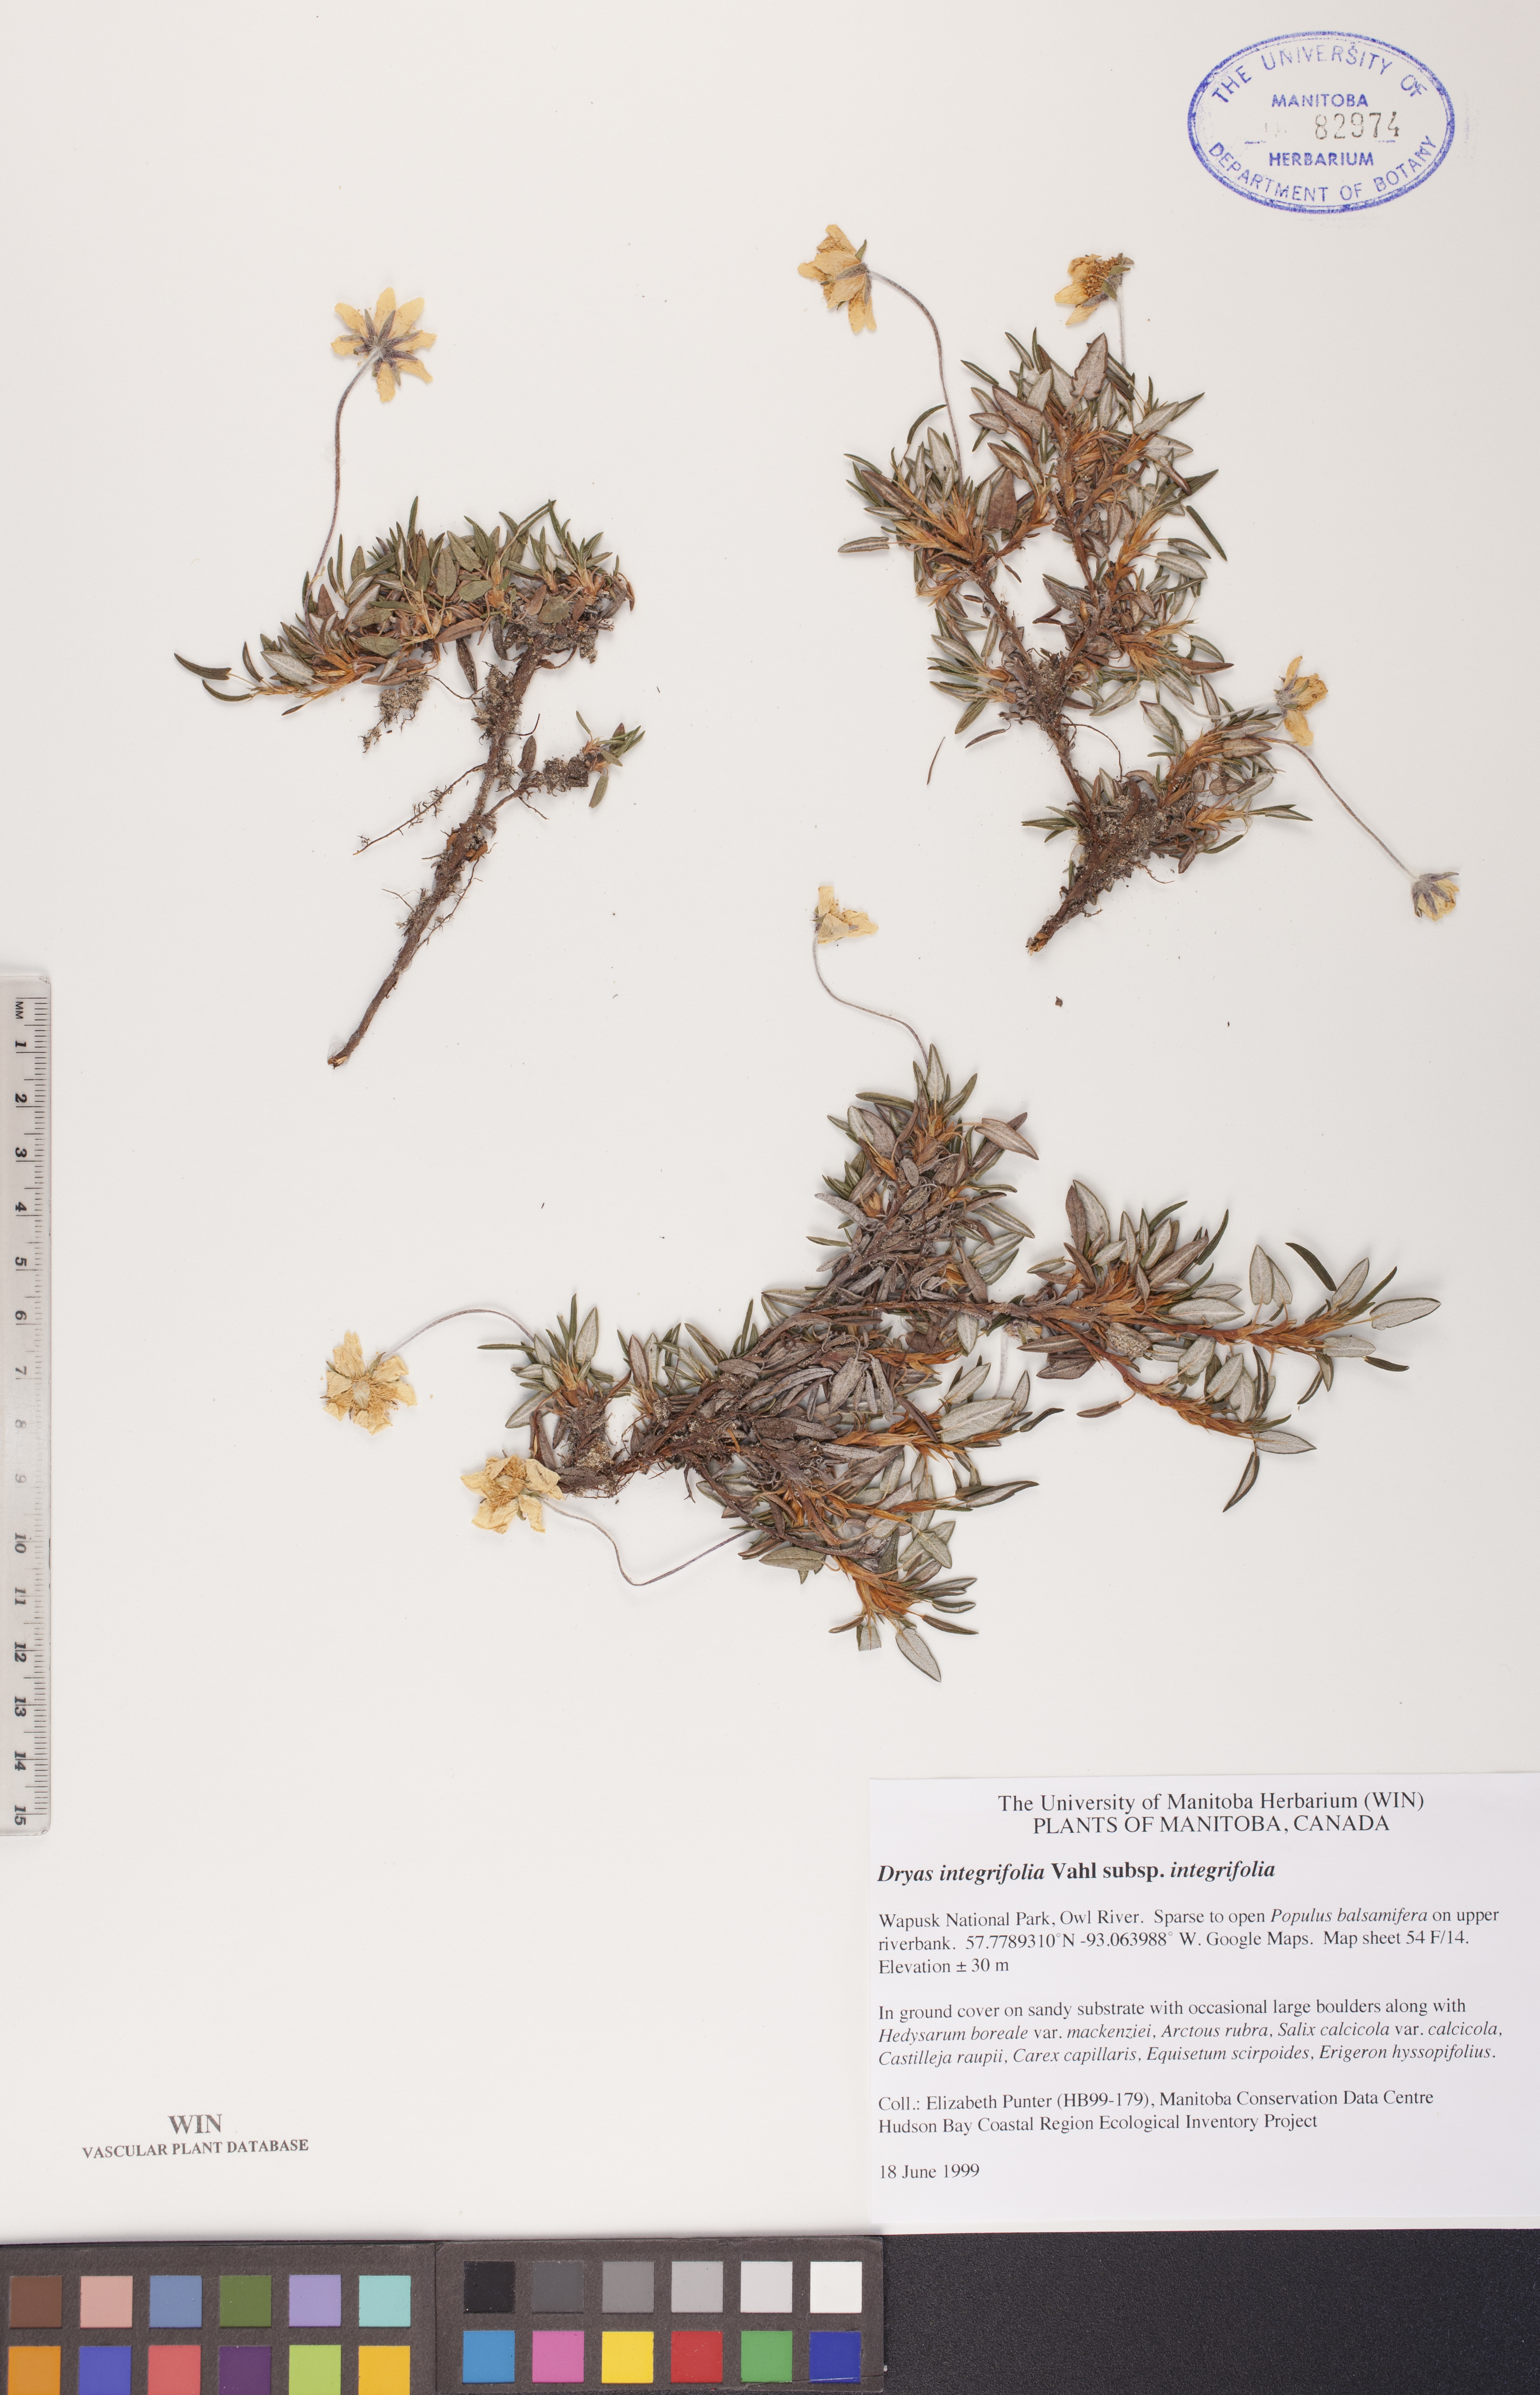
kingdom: Plantae
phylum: Tracheophyta
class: Magnoliopsida
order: Rosales
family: Rosaceae
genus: Dryas
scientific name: Dryas integrifolia
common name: Entire-leaved mountain avens
